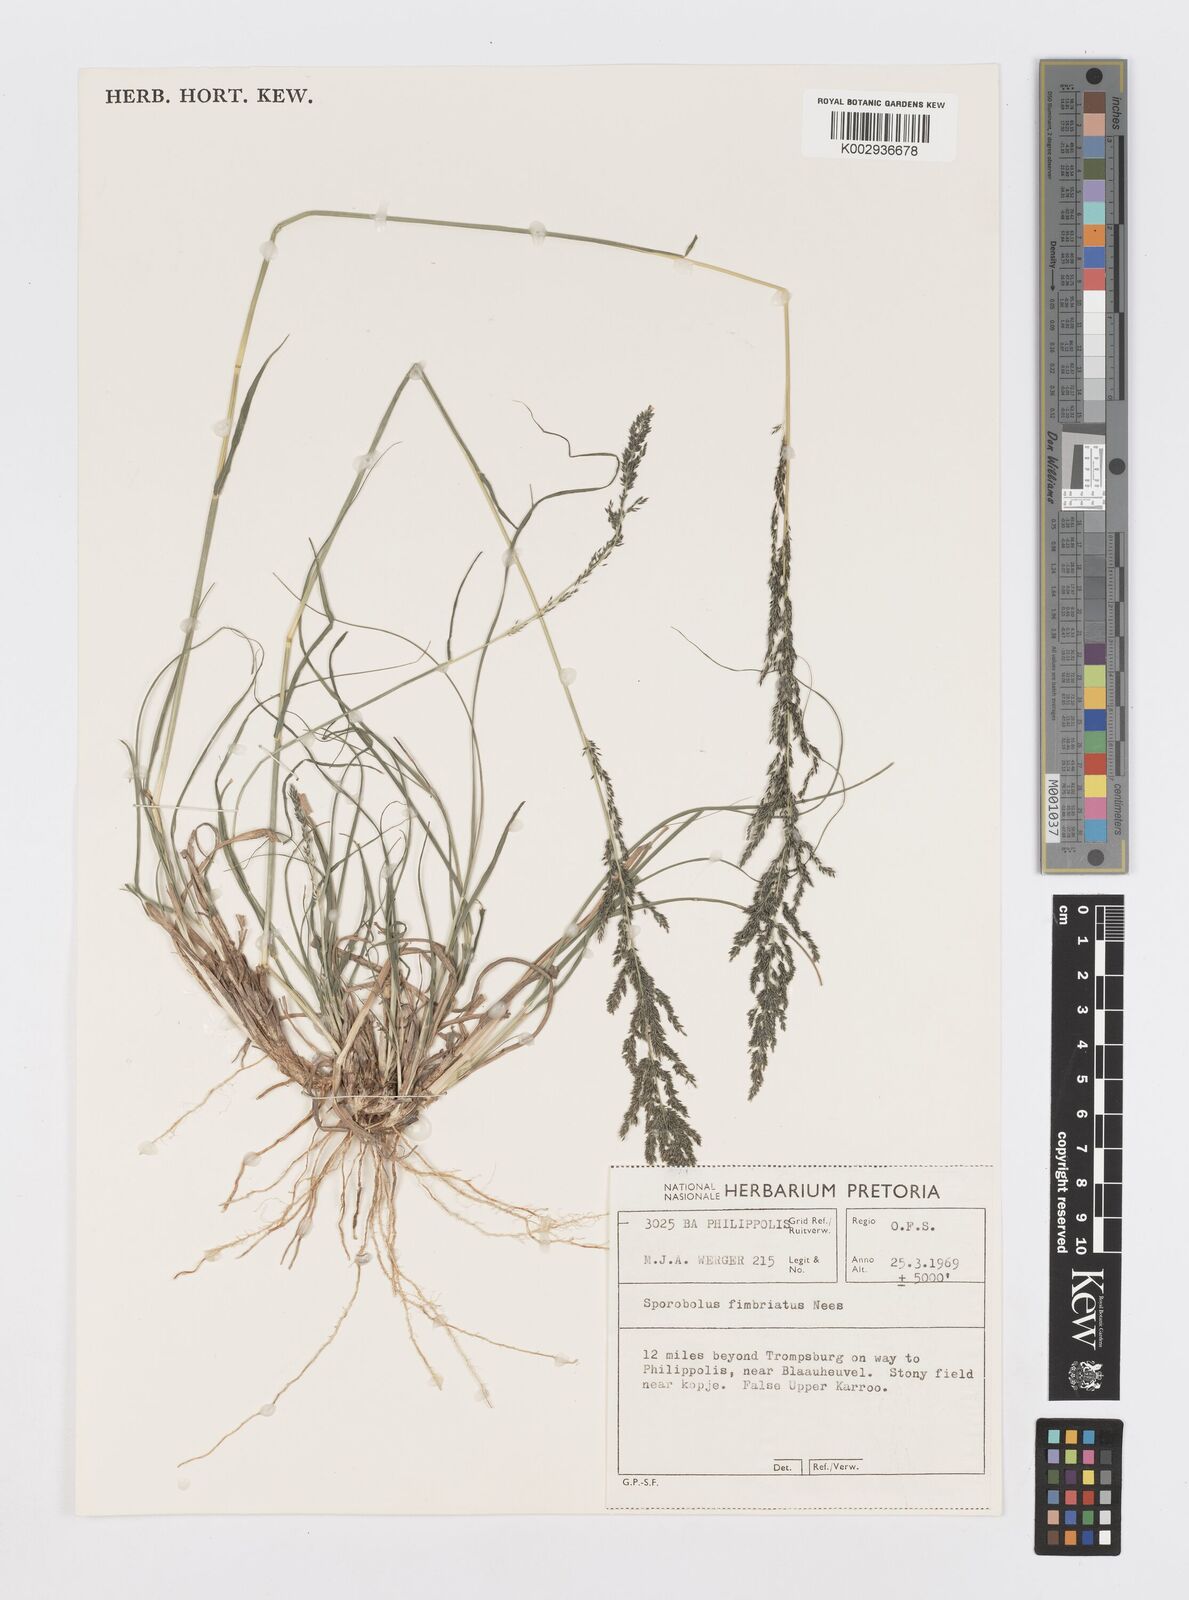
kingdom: Plantae
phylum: Tracheophyta
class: Liliopsida
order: Poales
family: Poaceae
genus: Sporobolus
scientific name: Sporobolus fimbriatus
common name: Fringed dropseed
